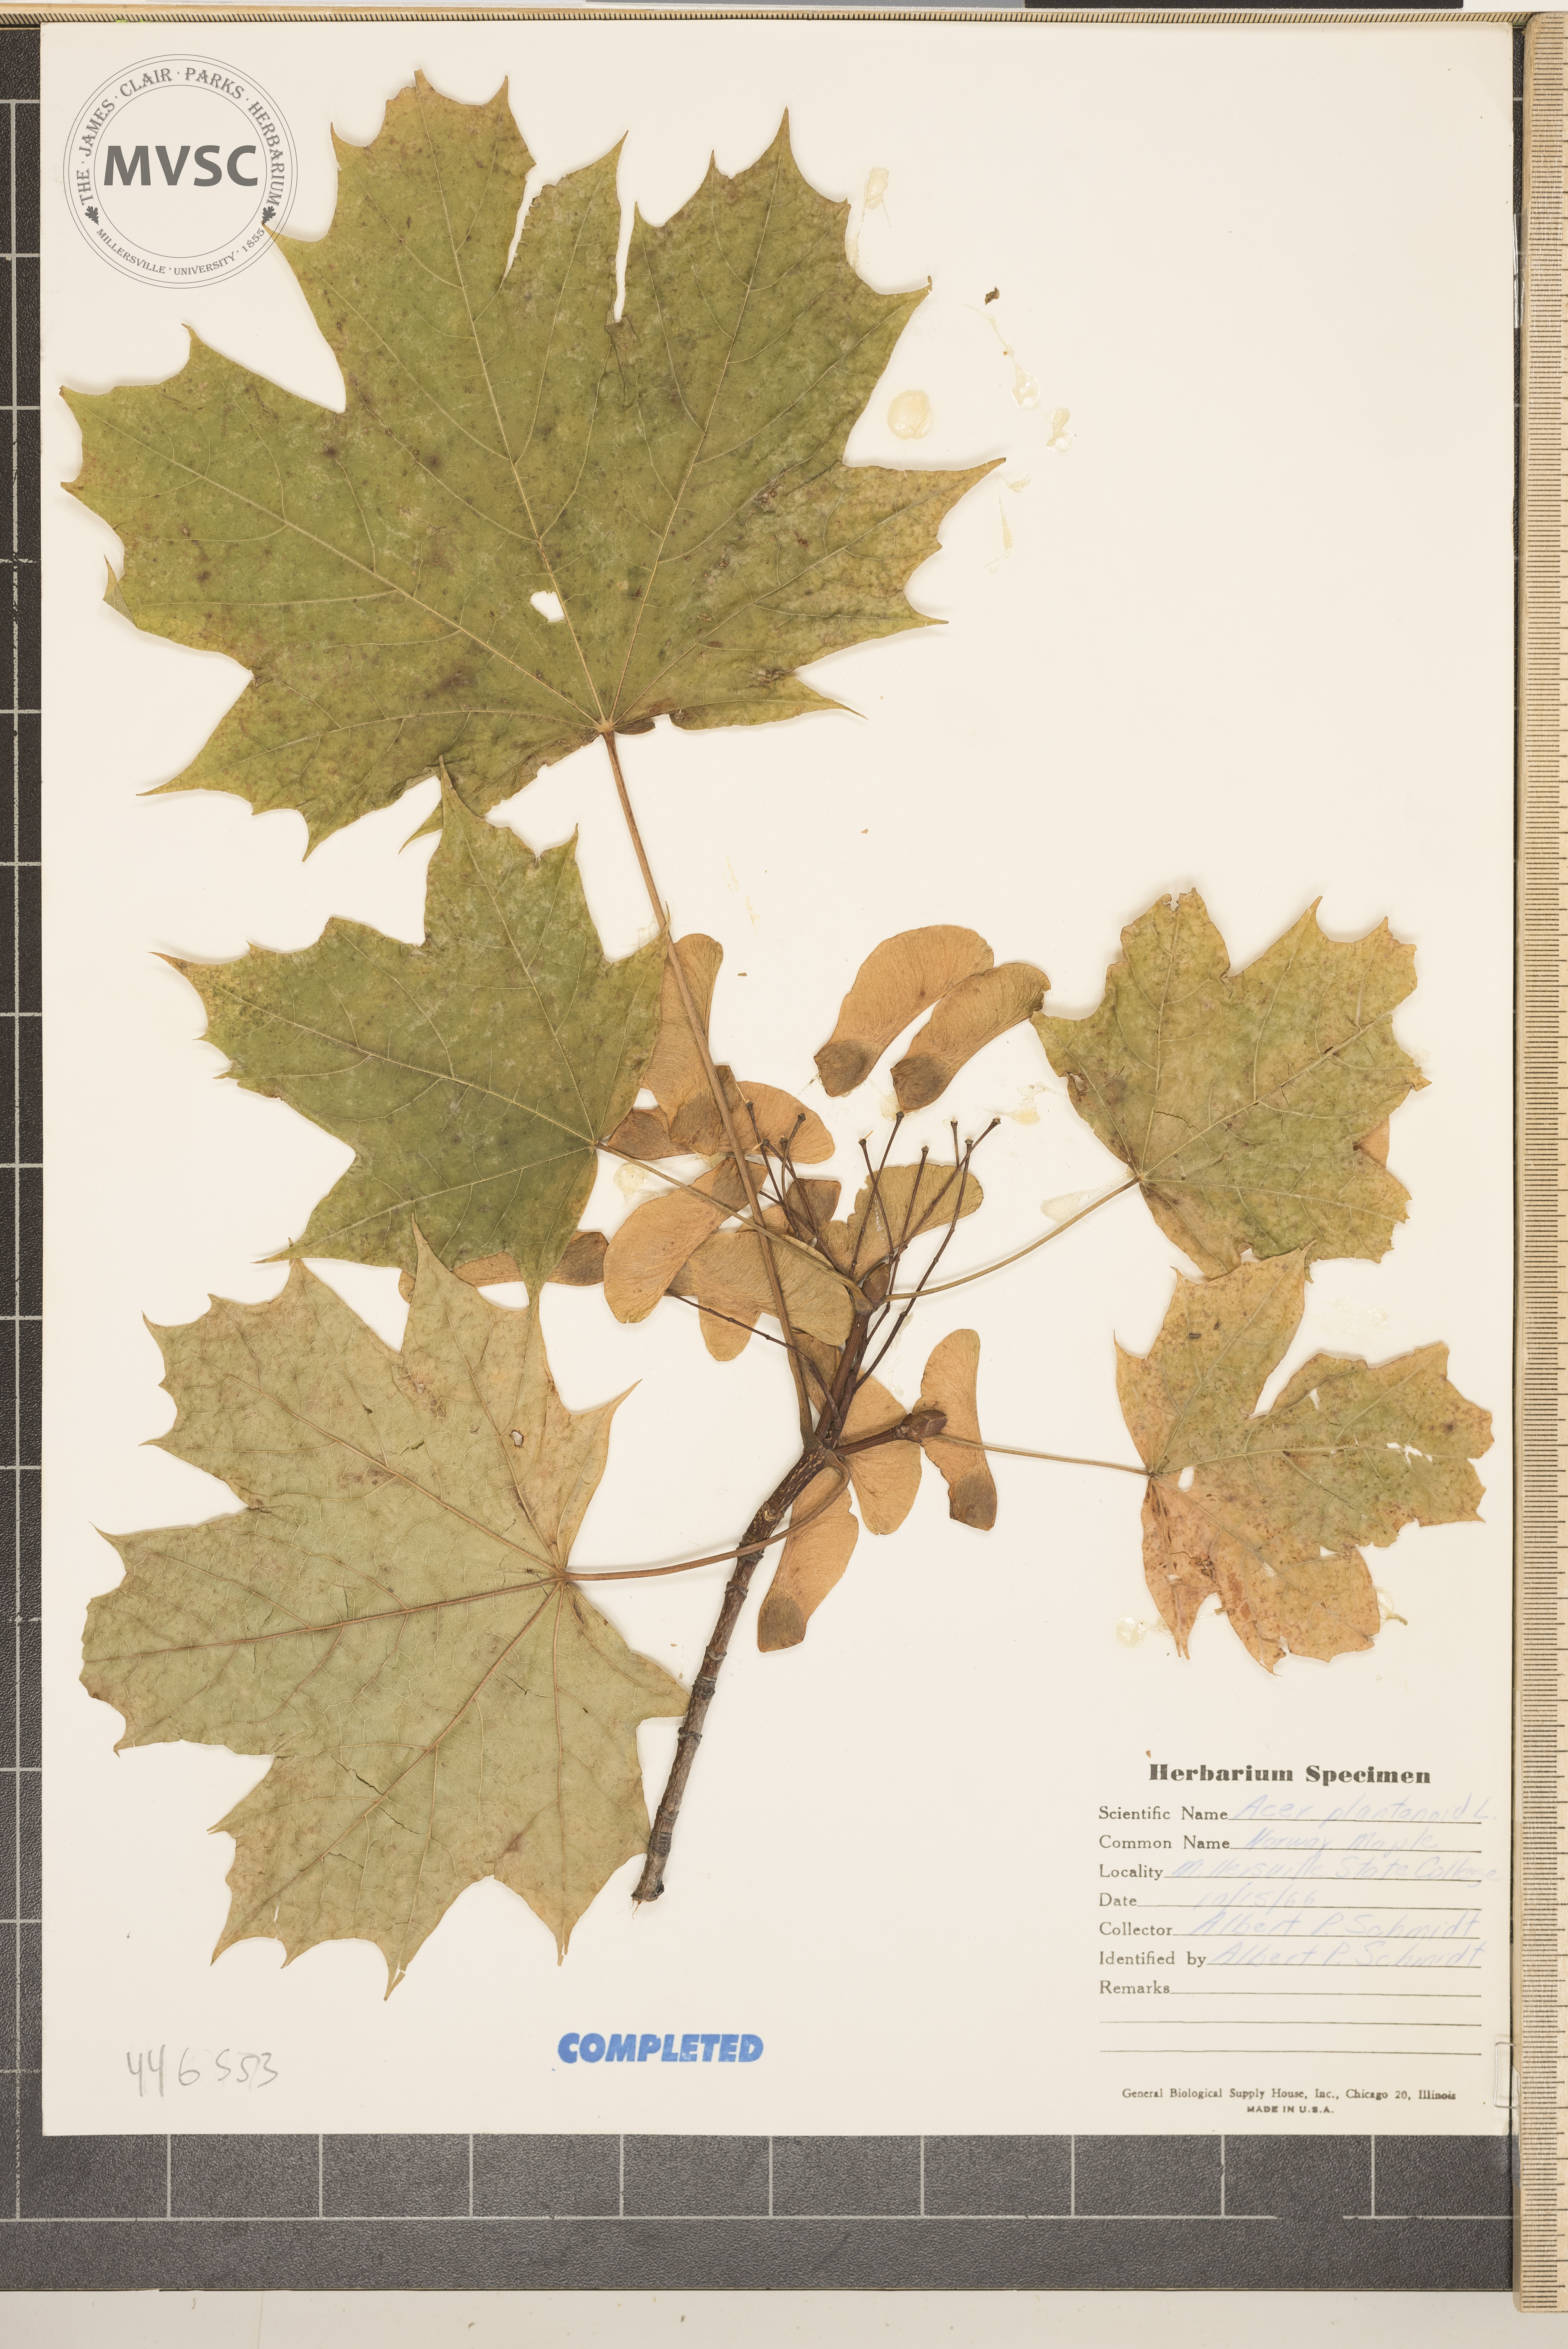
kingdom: Plantae
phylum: Tracheophyta
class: Magnoliopsida
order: Sapindales
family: Sapindaceae
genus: Acer
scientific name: Acer platanoides
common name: Norway maple
